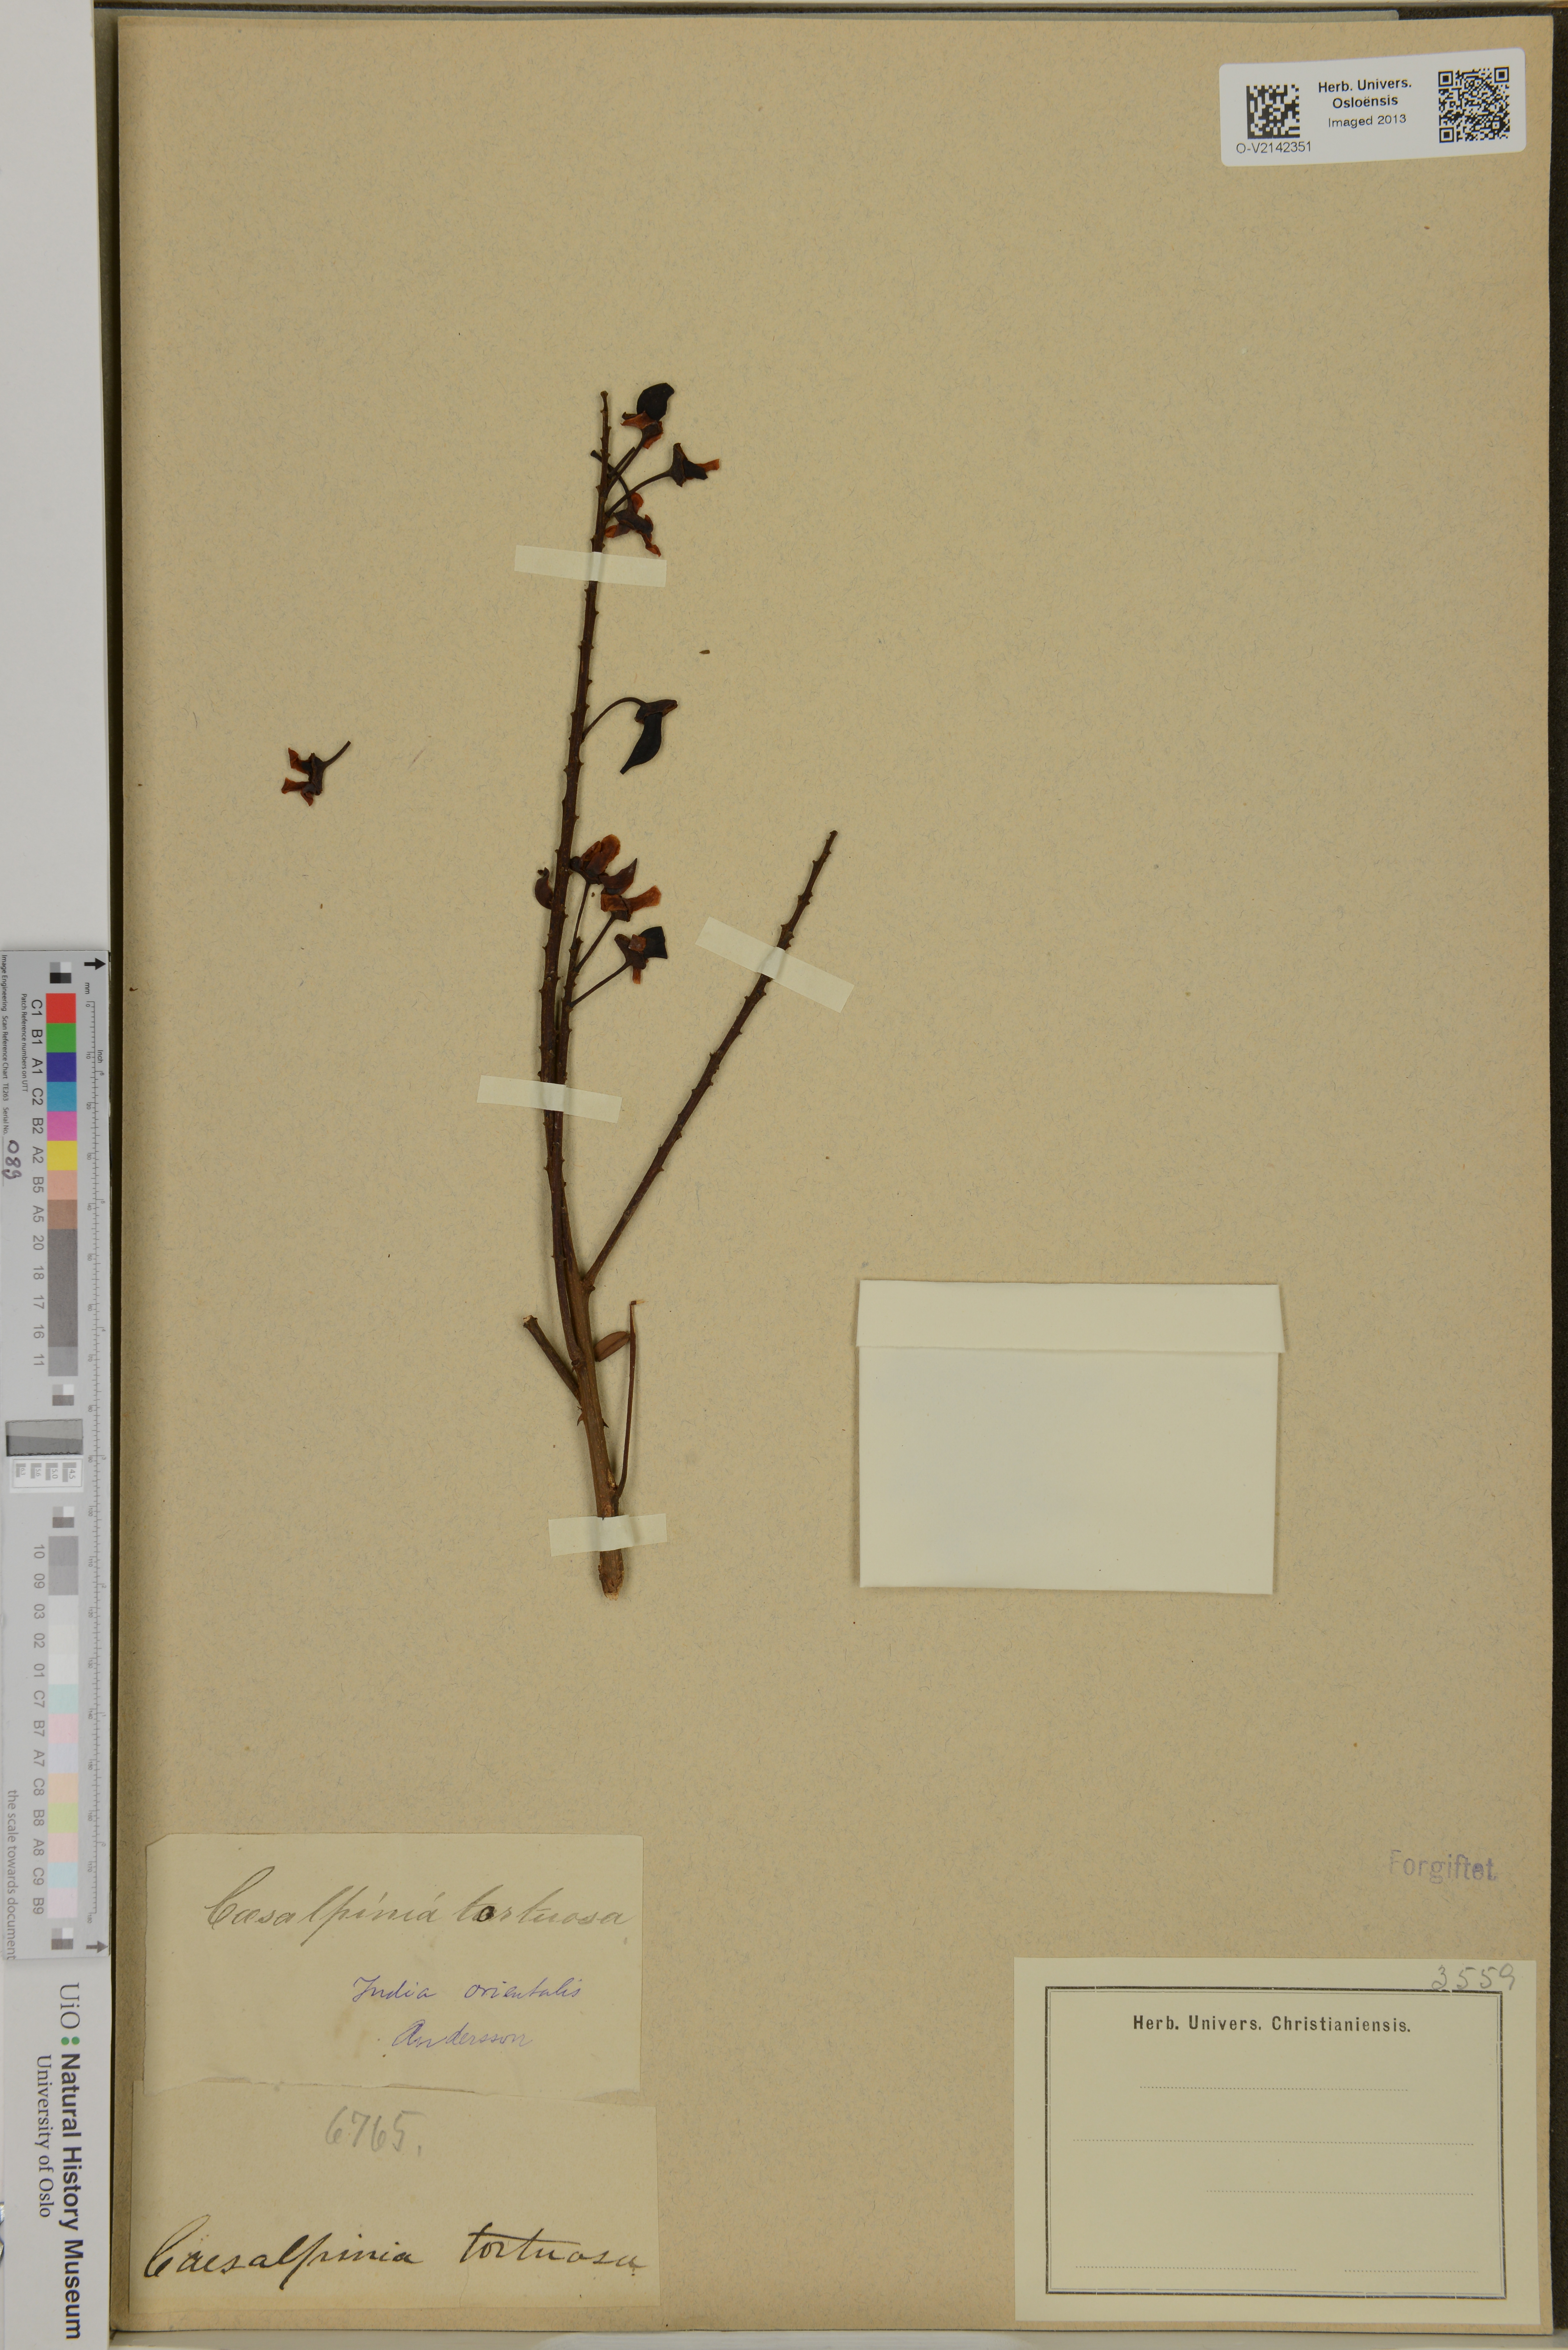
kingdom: Plantae
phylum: Tracheophyta
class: Magnoliopsida
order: Fabales
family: Fabaceae
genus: Moullava
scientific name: Moullava tortuosa
